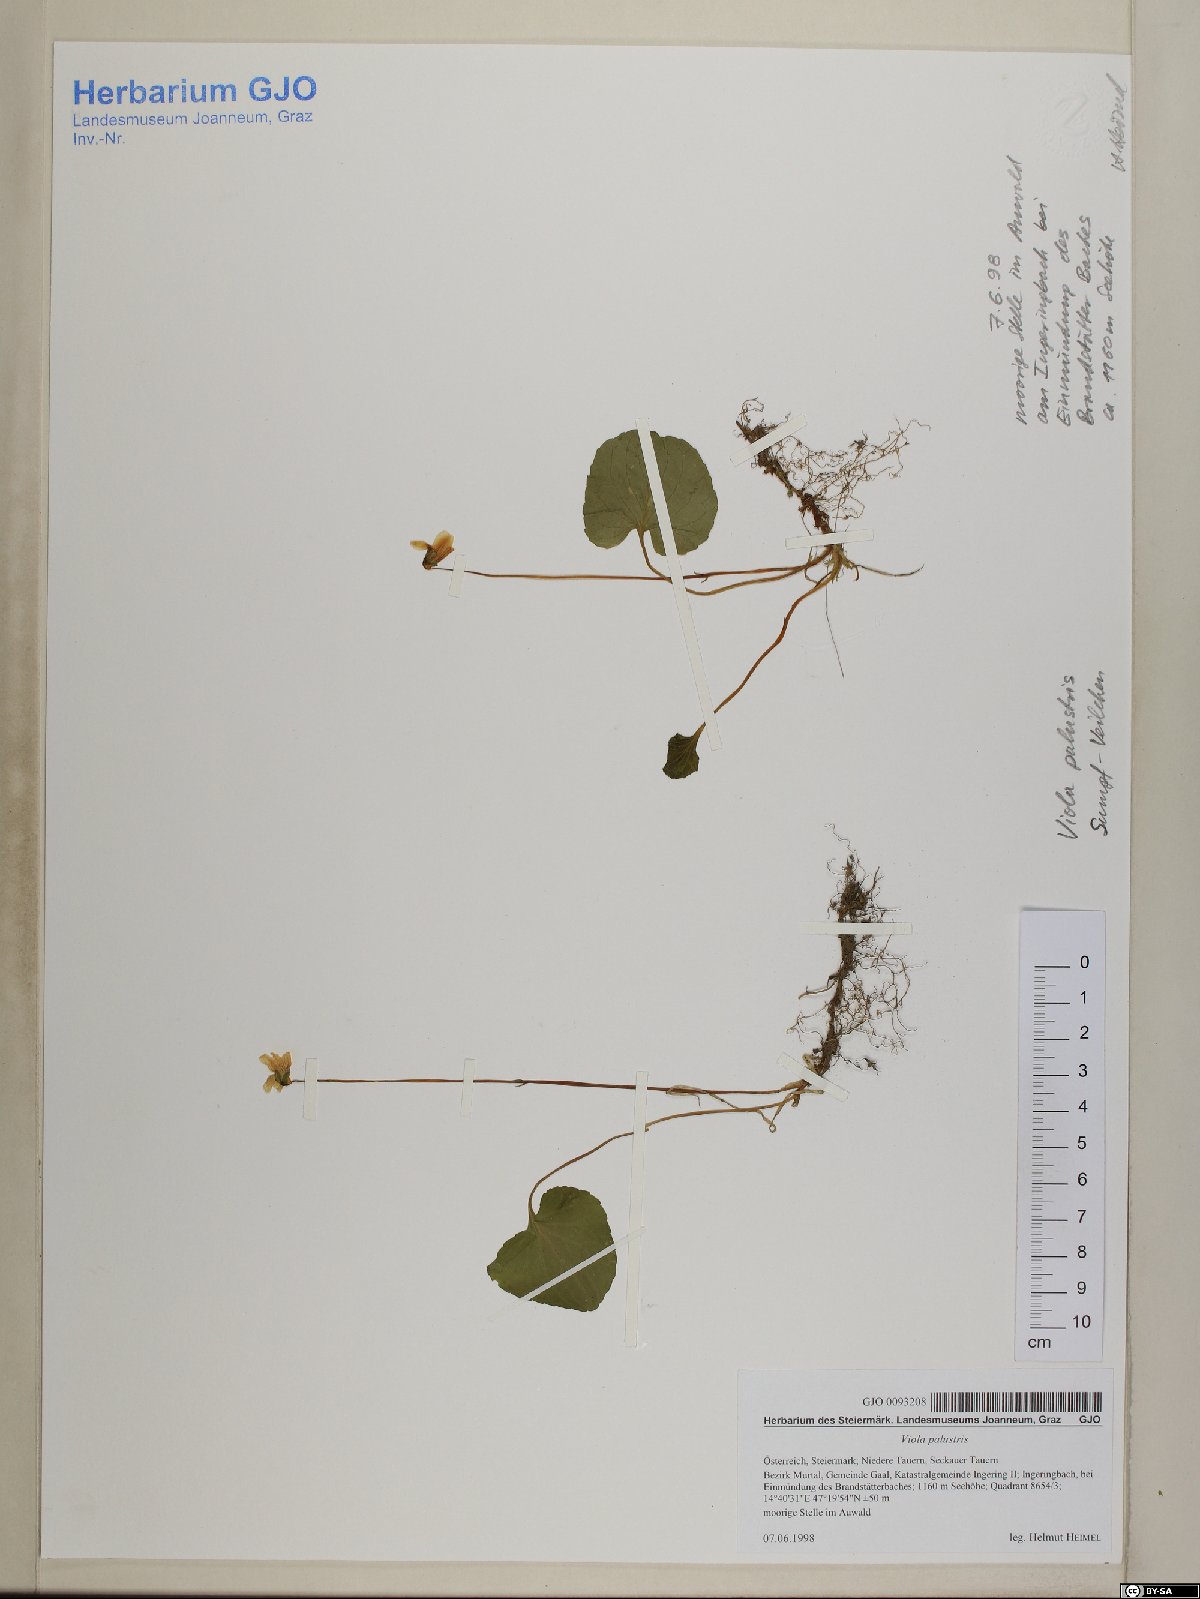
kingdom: Plantae
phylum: Tracheophyta
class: Magnoliopsida
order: Malpighiales
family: Violaceae
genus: Viola
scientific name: Viola tricolor
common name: Pansy
